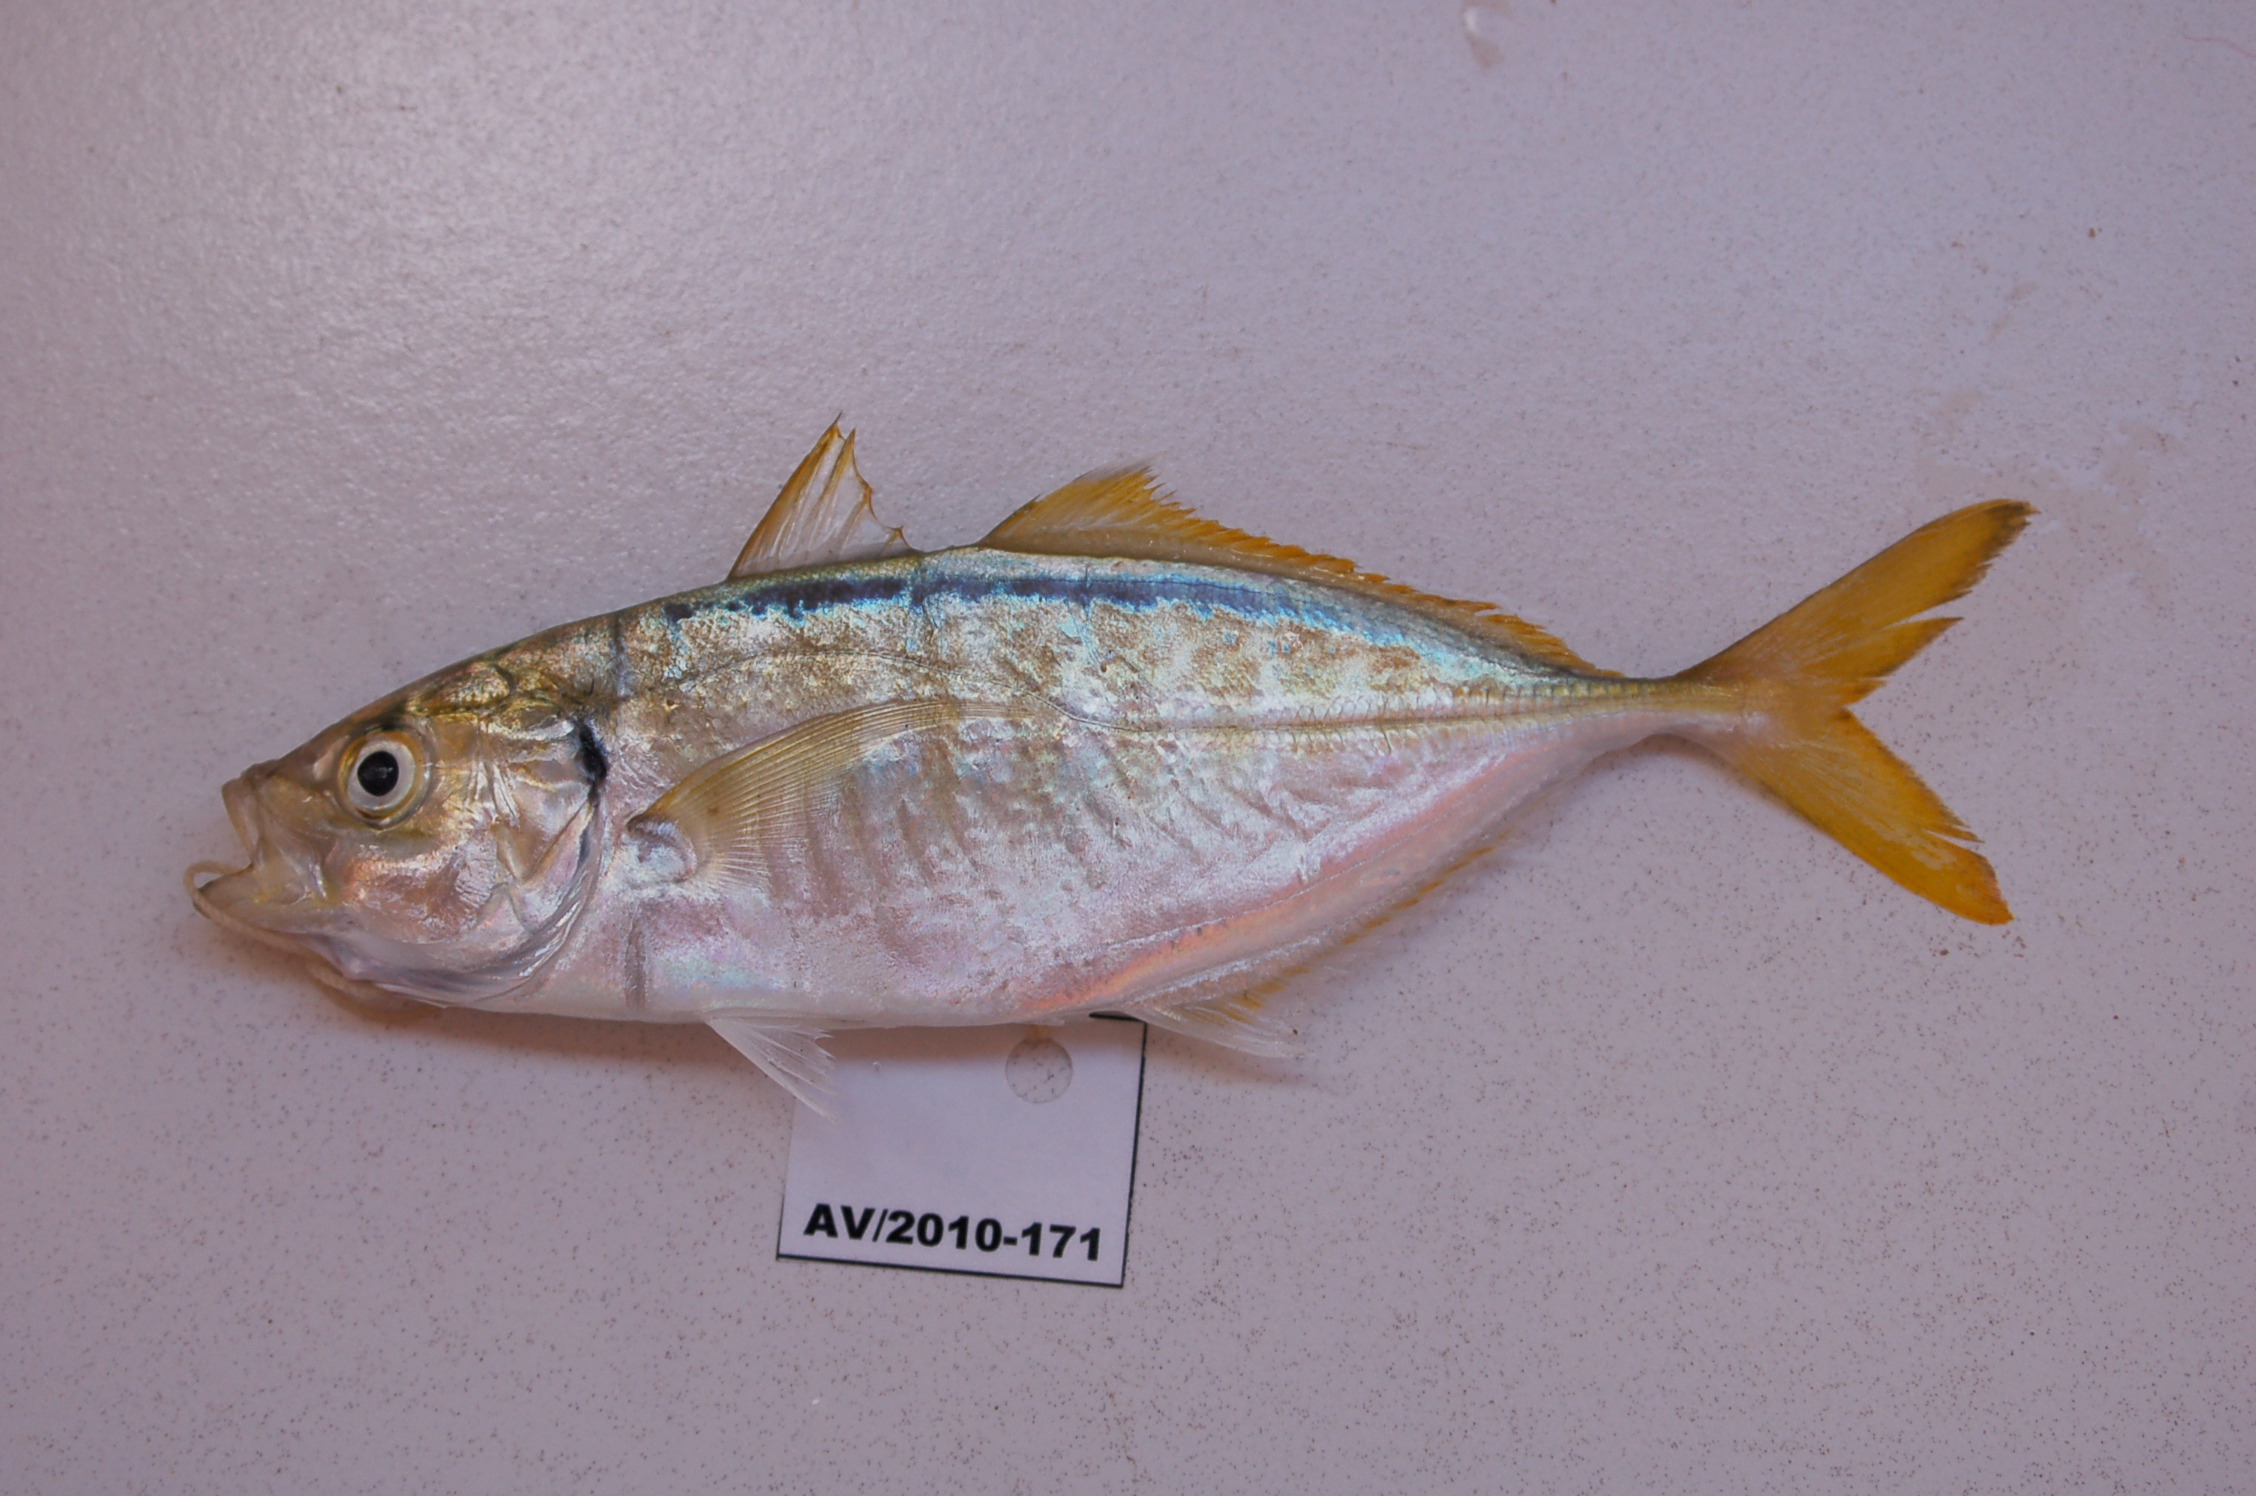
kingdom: Animalia
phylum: Chordata
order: Perciformes
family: Carangidae
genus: Alepes
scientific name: Alepes djedaba
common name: Shrimp scad
